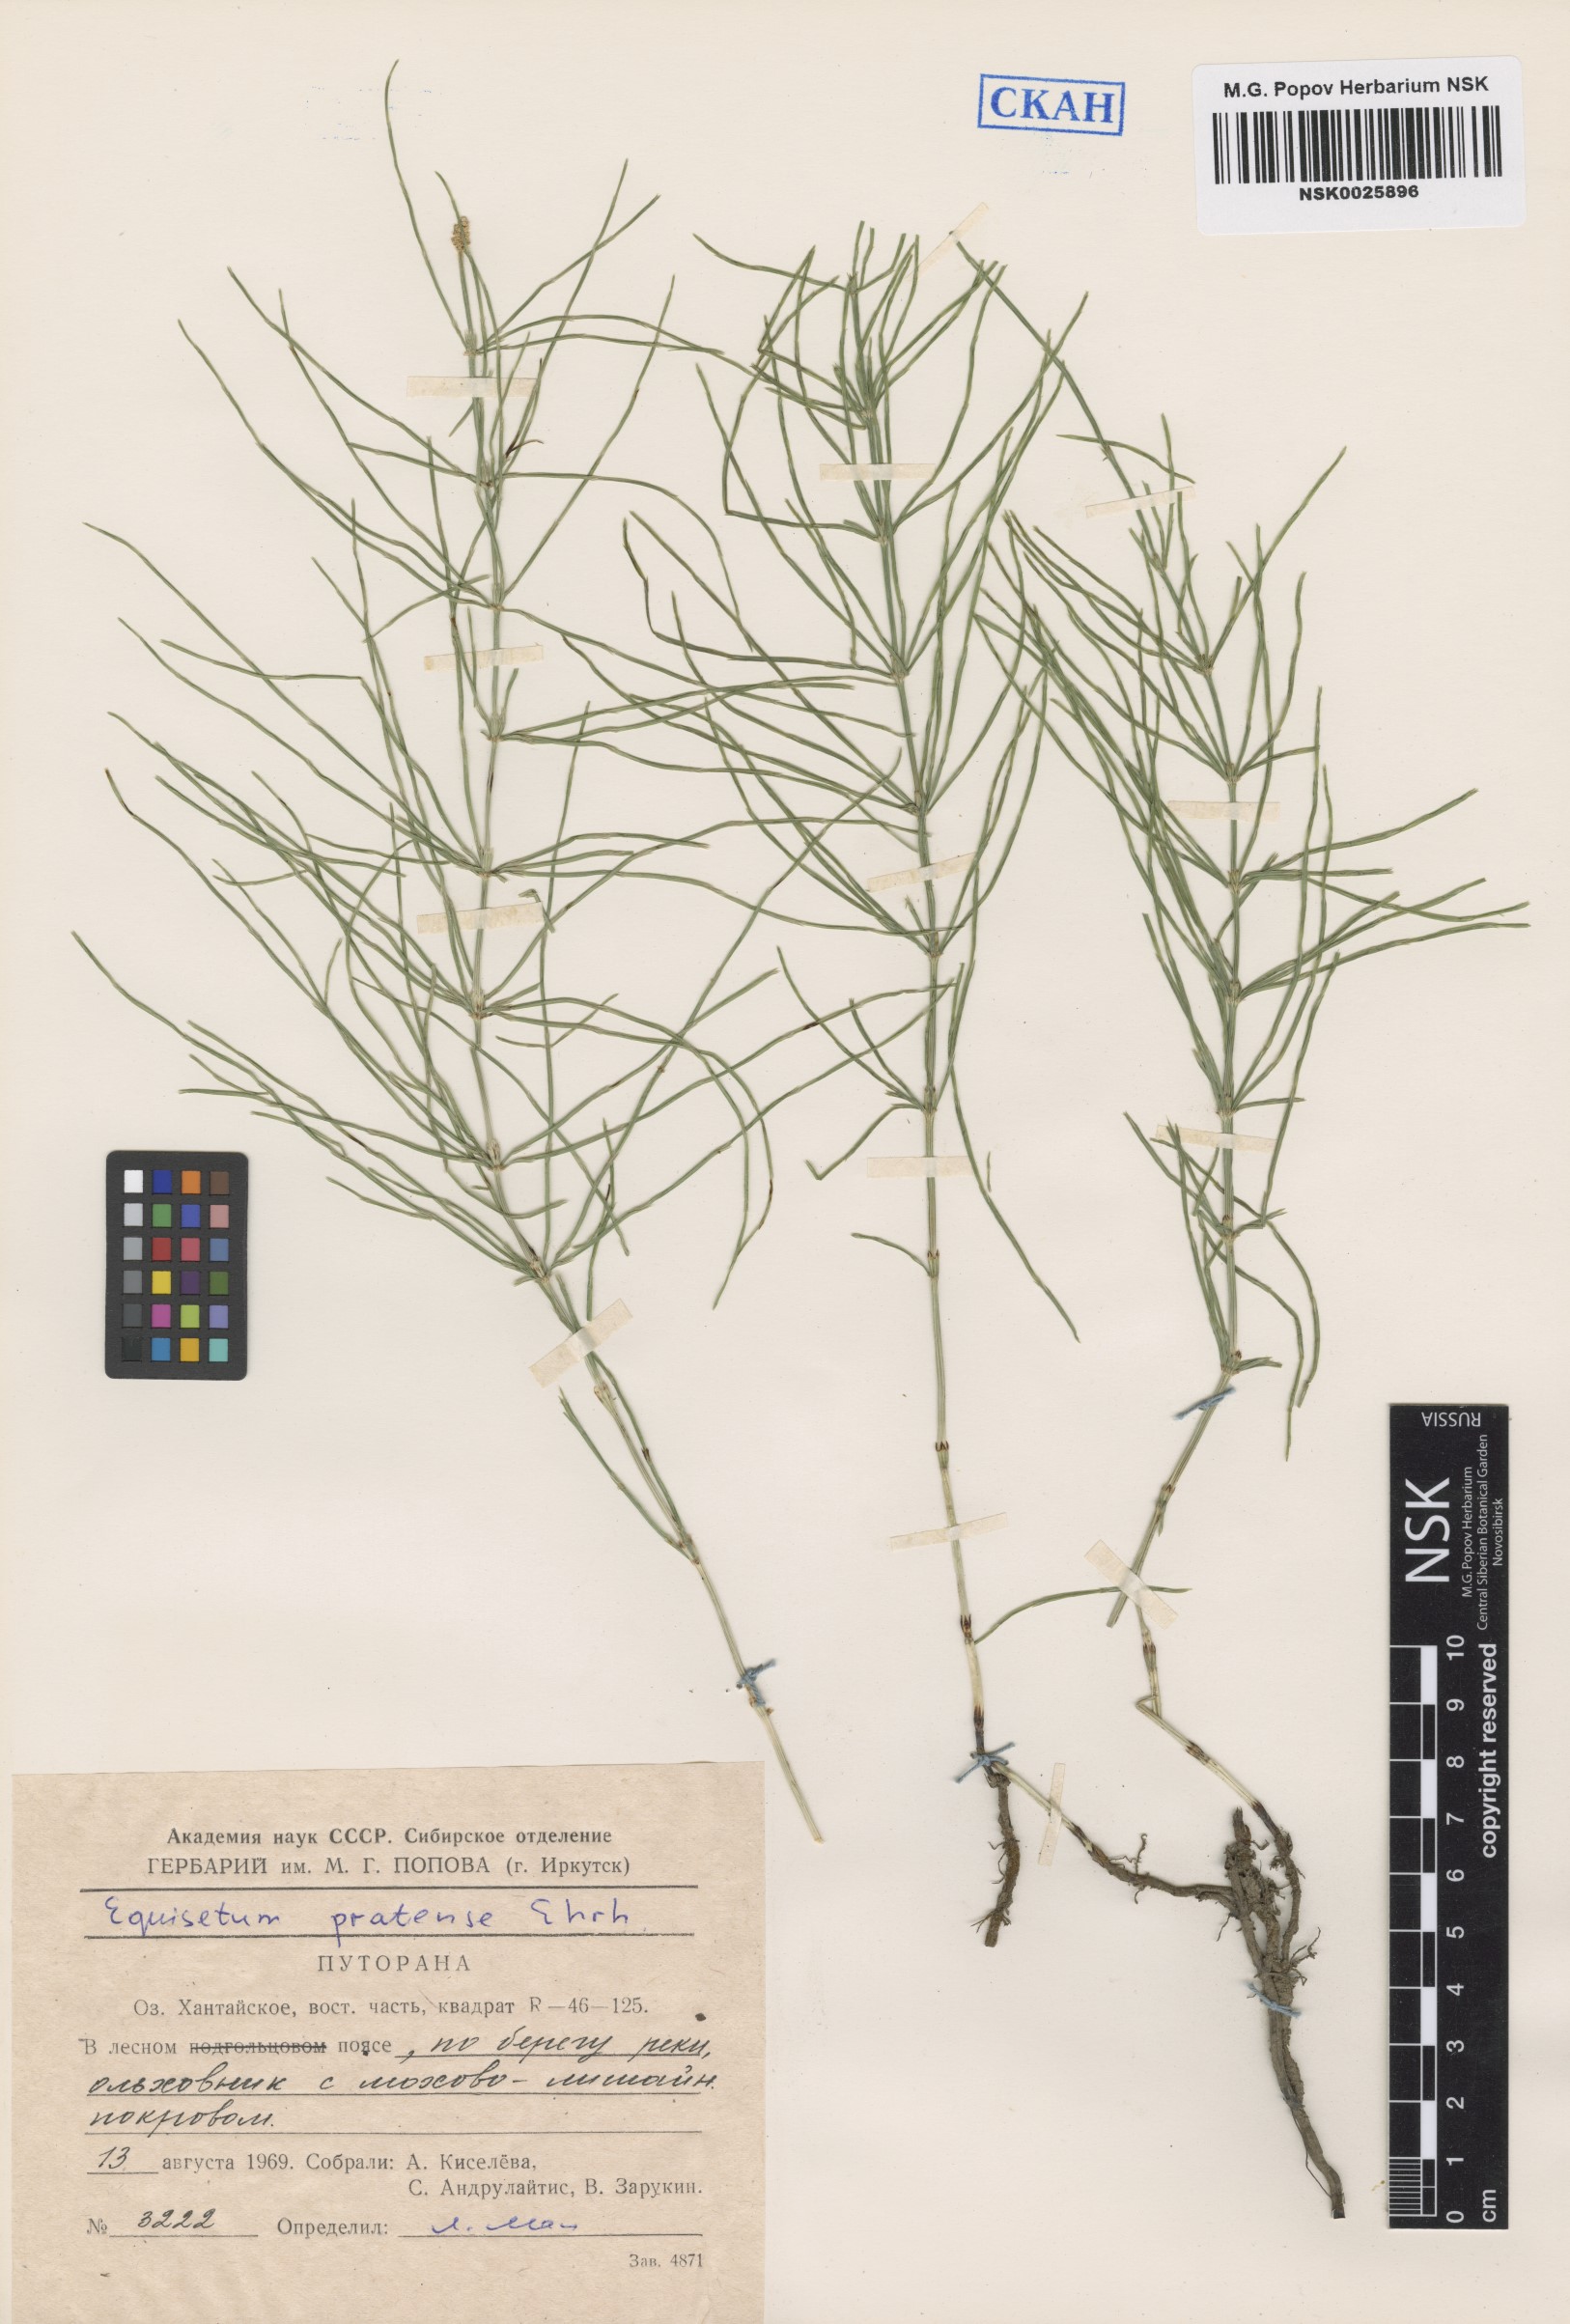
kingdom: Plantae
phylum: Tracheophyta
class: Polypodiopsida
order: Equisetales
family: Equisetaceae
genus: Equisetum
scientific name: Equisetum pratense
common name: Meadow horsetail
